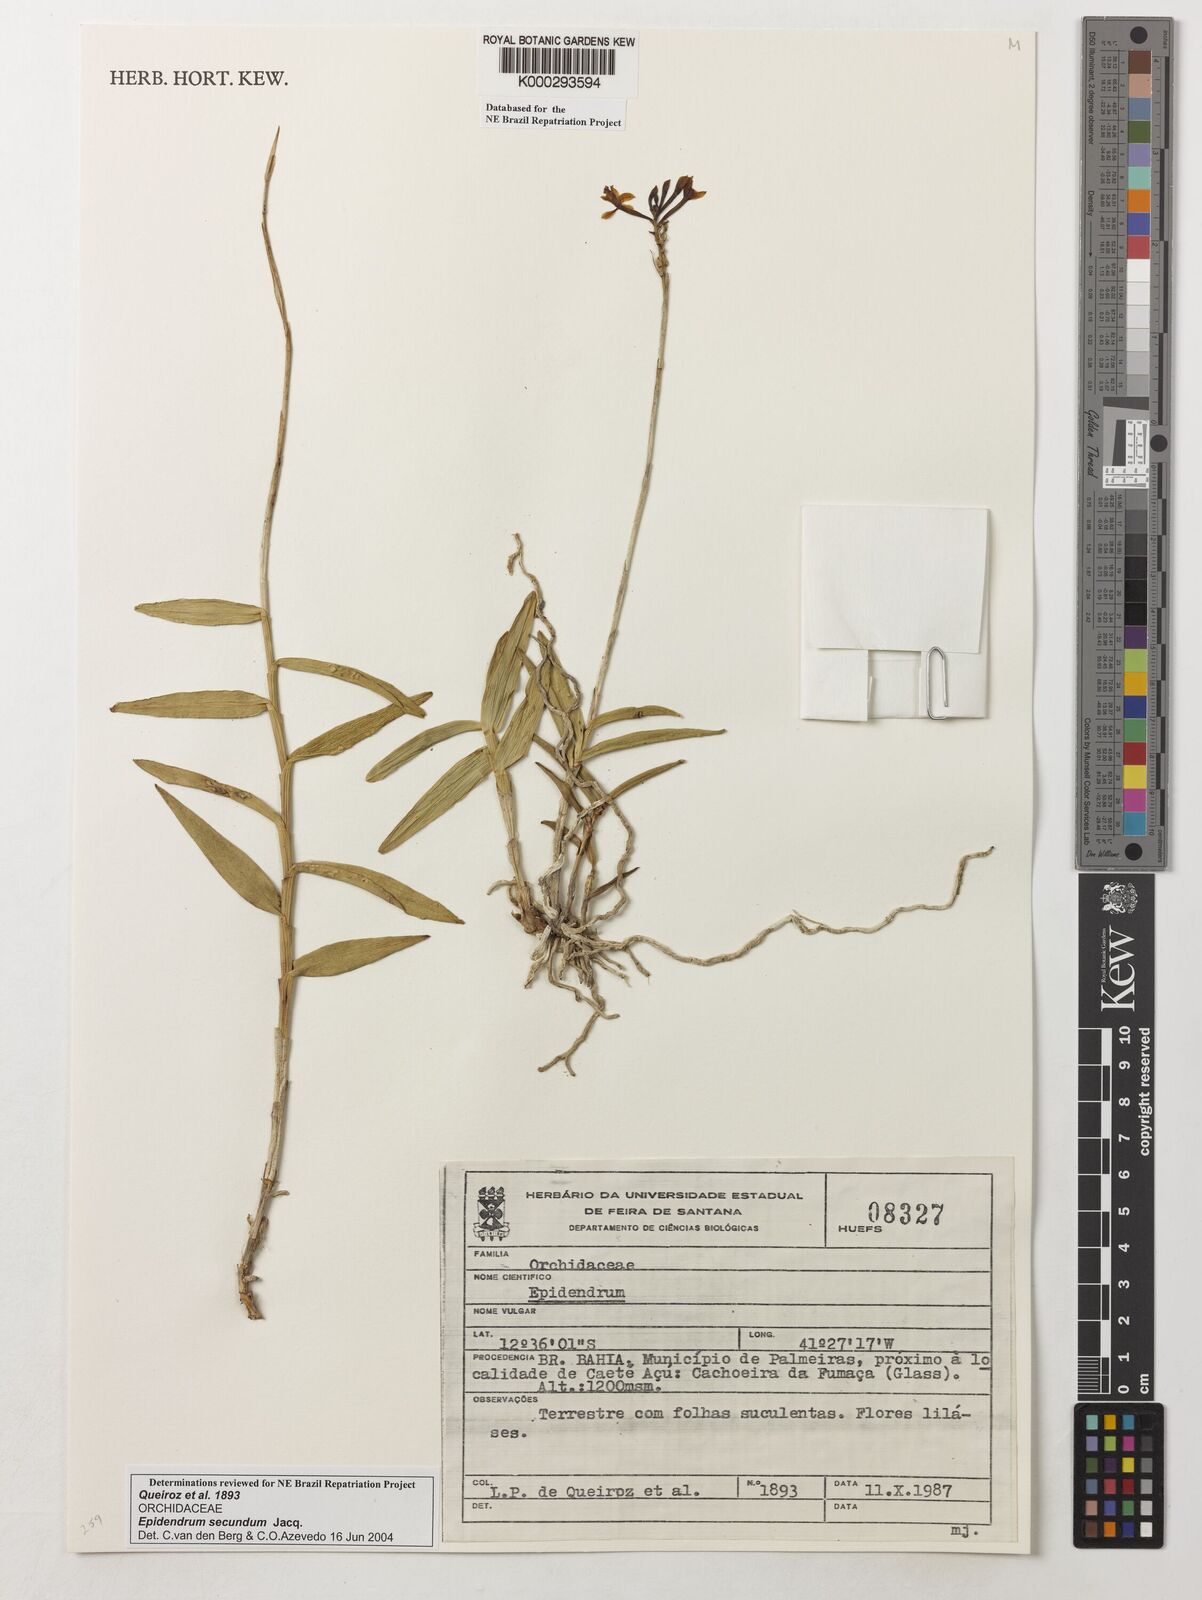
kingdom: Plantae
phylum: Tracheophyta
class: Liliopsida
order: Asparagales
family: Orchidaceae
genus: Epidendrum
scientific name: Epidendrum secundum
